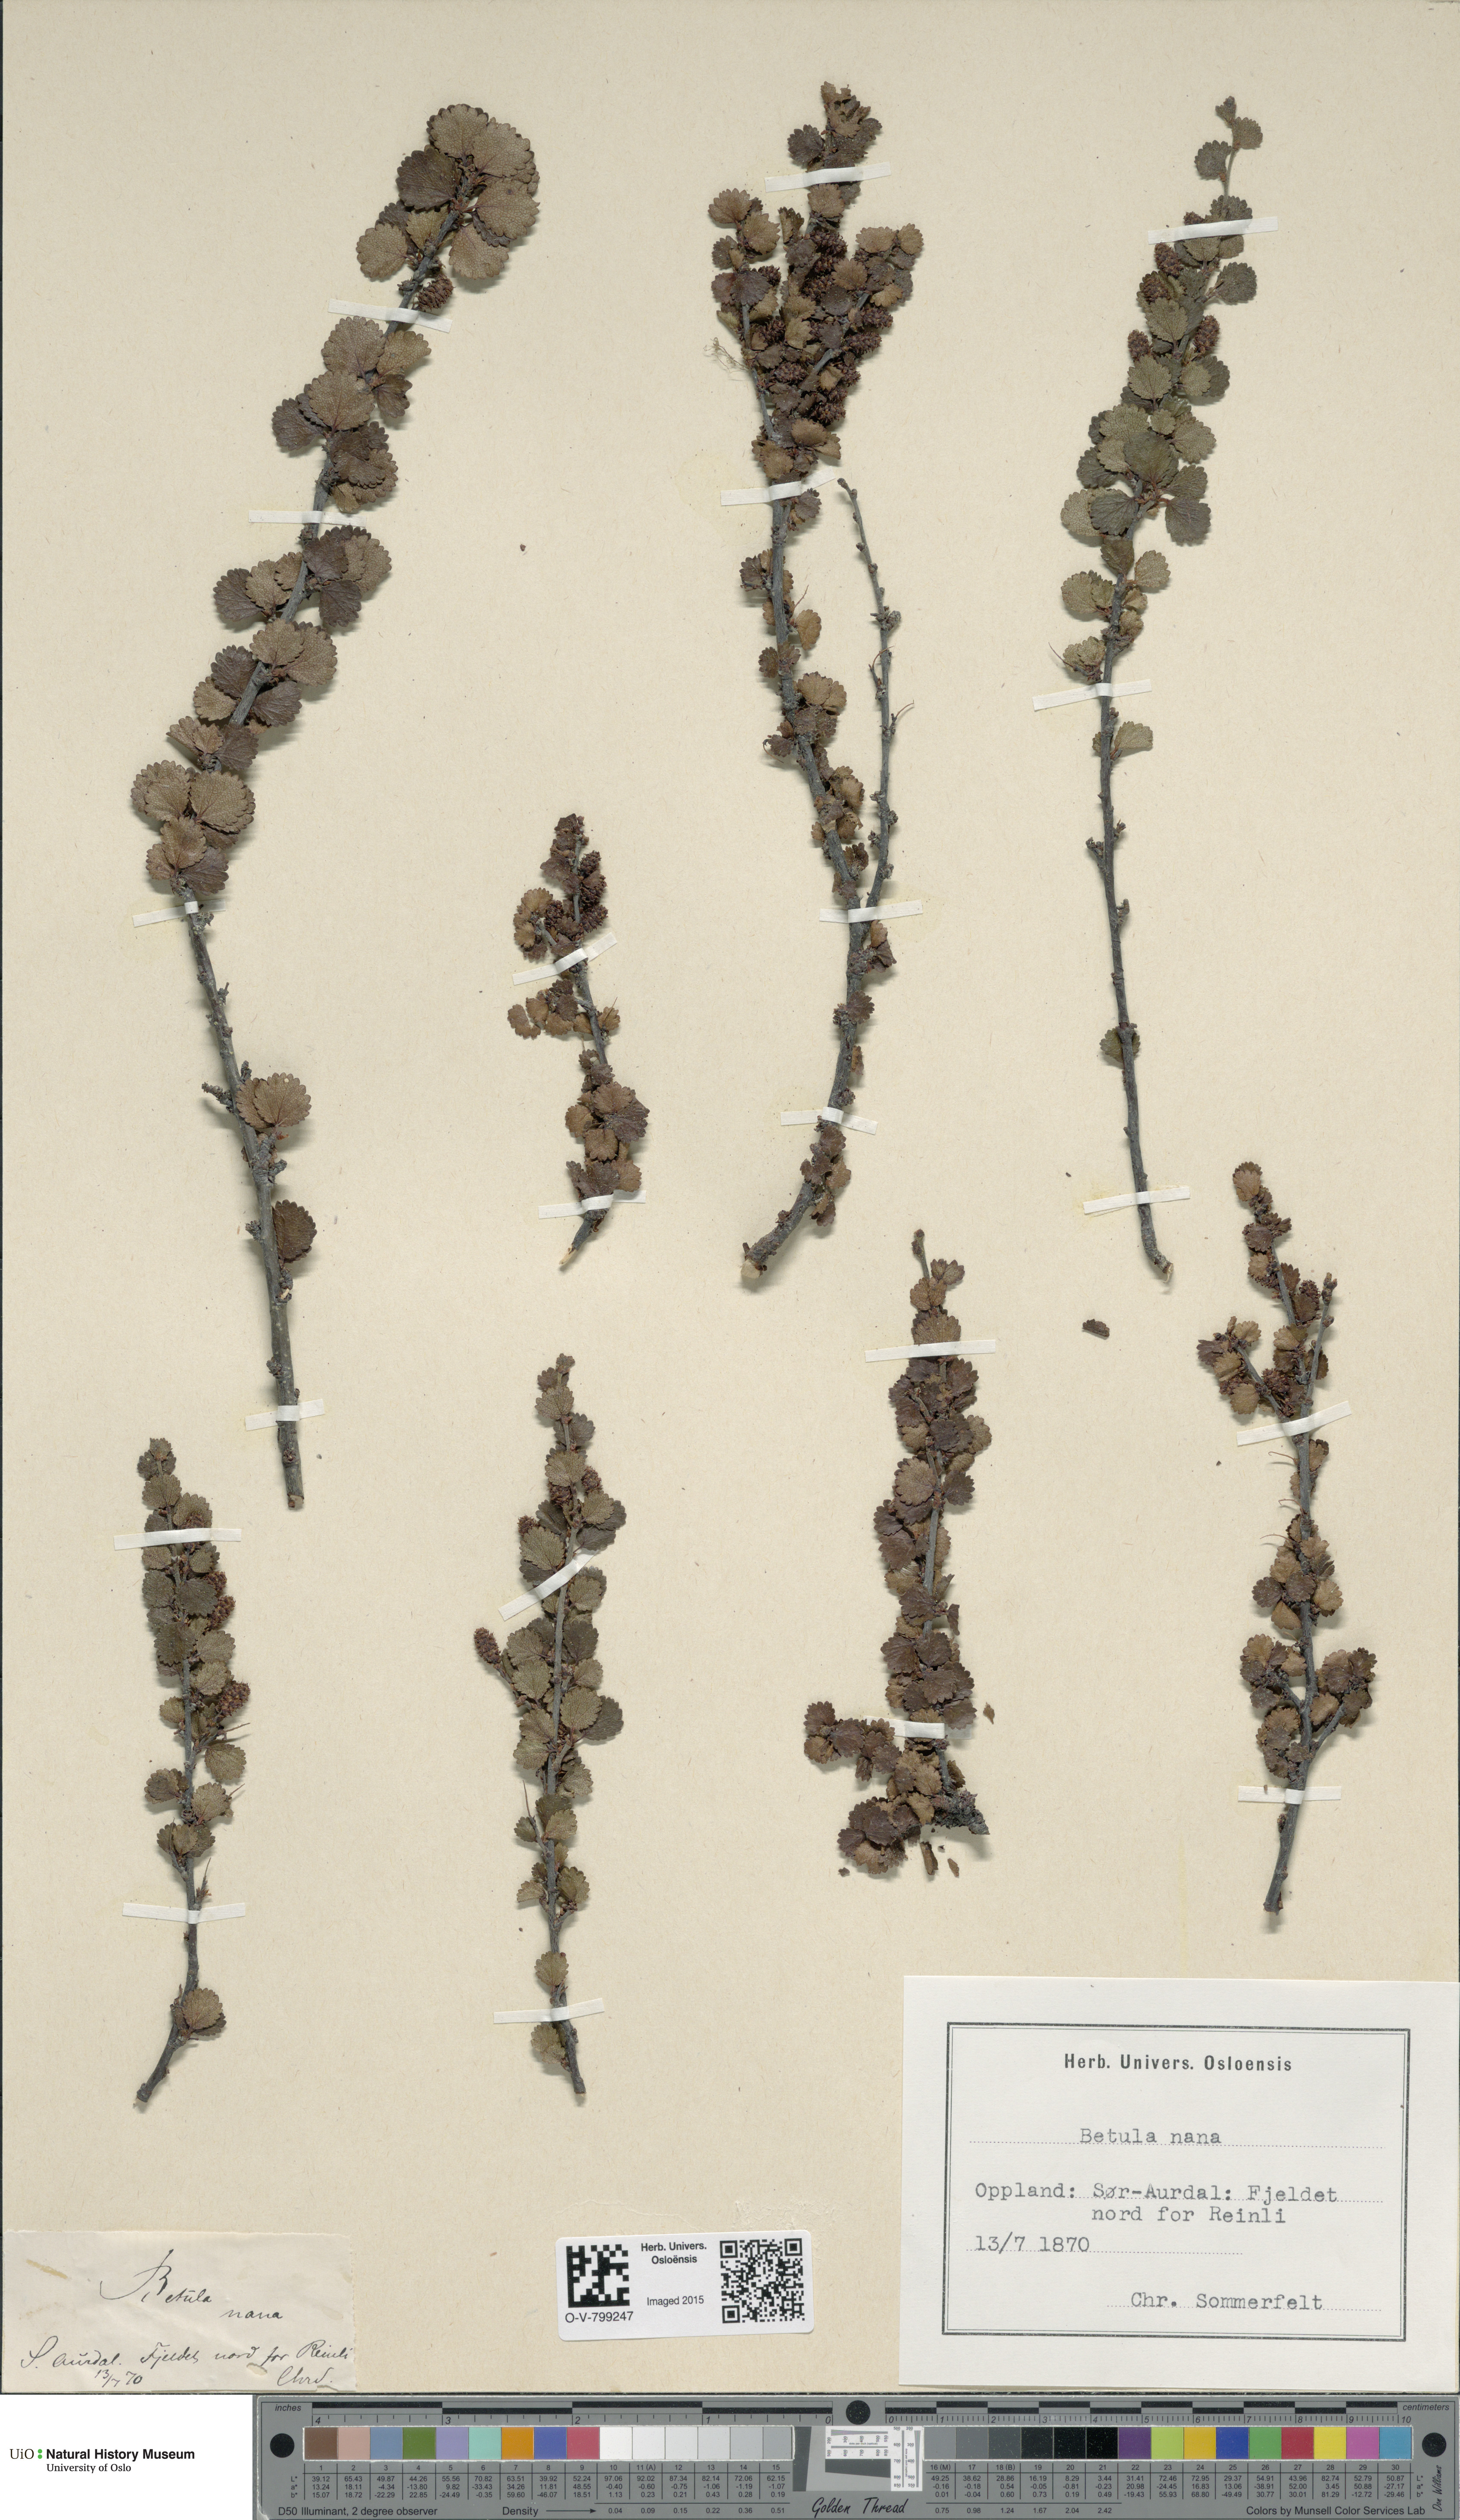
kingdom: Plantae
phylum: Tracheophyta
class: Magnoliopsida
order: Fagales
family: Betulaceae
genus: Betula
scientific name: Betula nana
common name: Arctic dwarf birch
